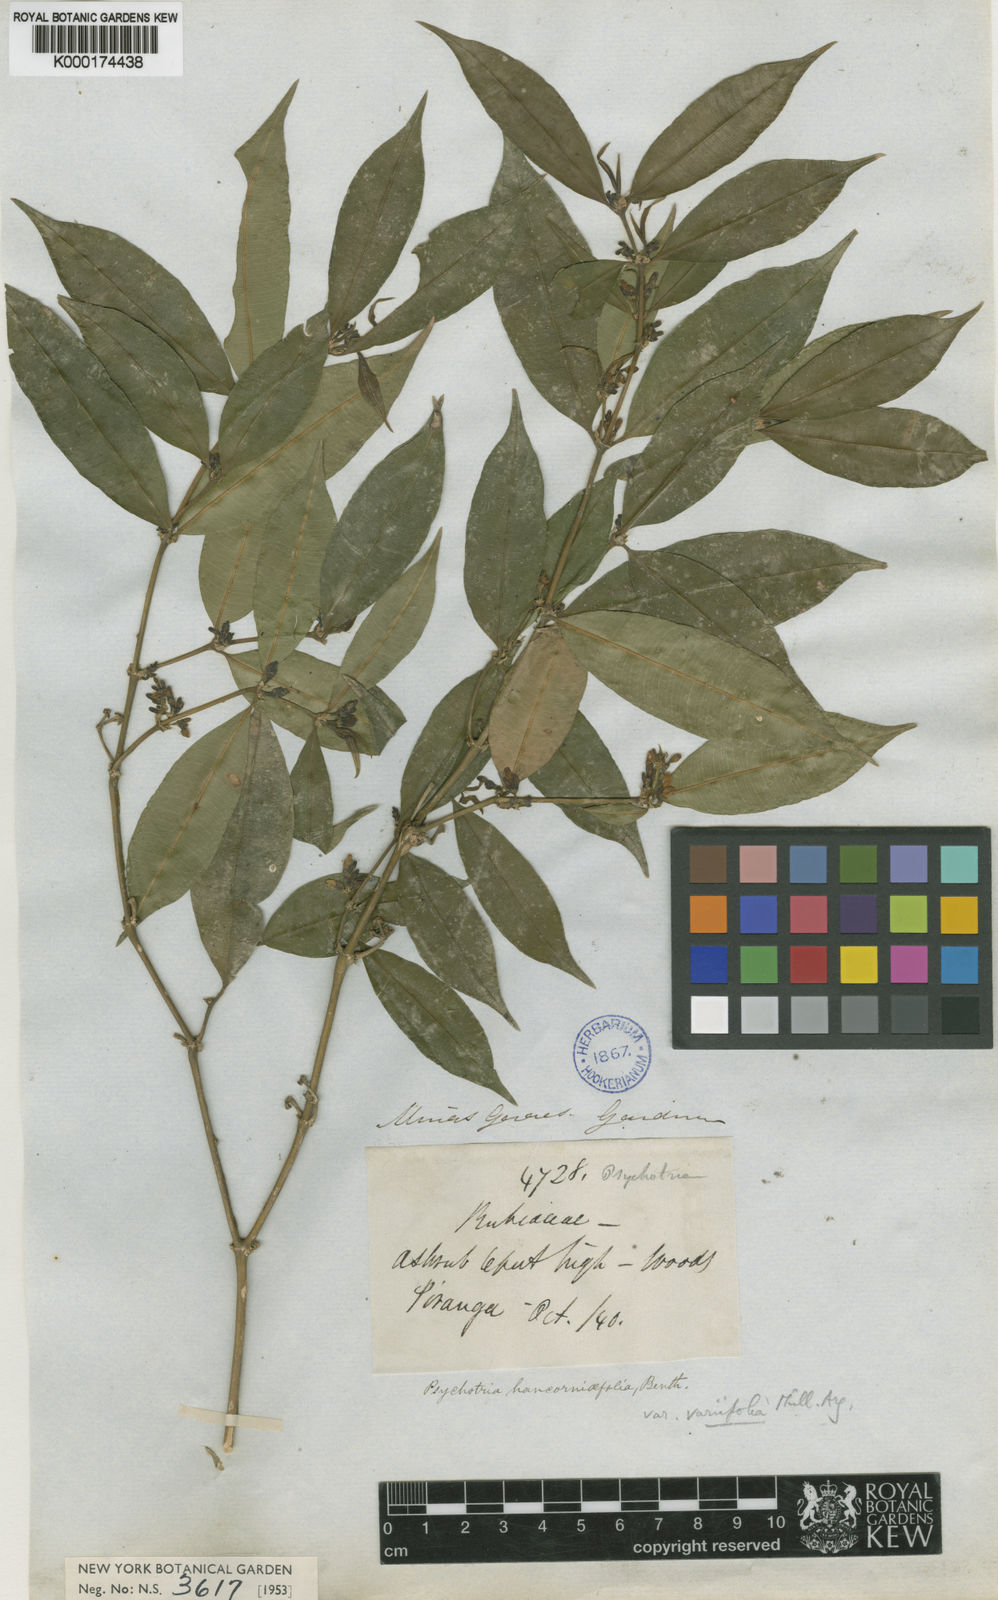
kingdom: Plantae
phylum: Tracheophyta
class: Magnoliopsida
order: Gentianales
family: Rubiaceae
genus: Palicourea
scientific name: Palicourea sessilis
